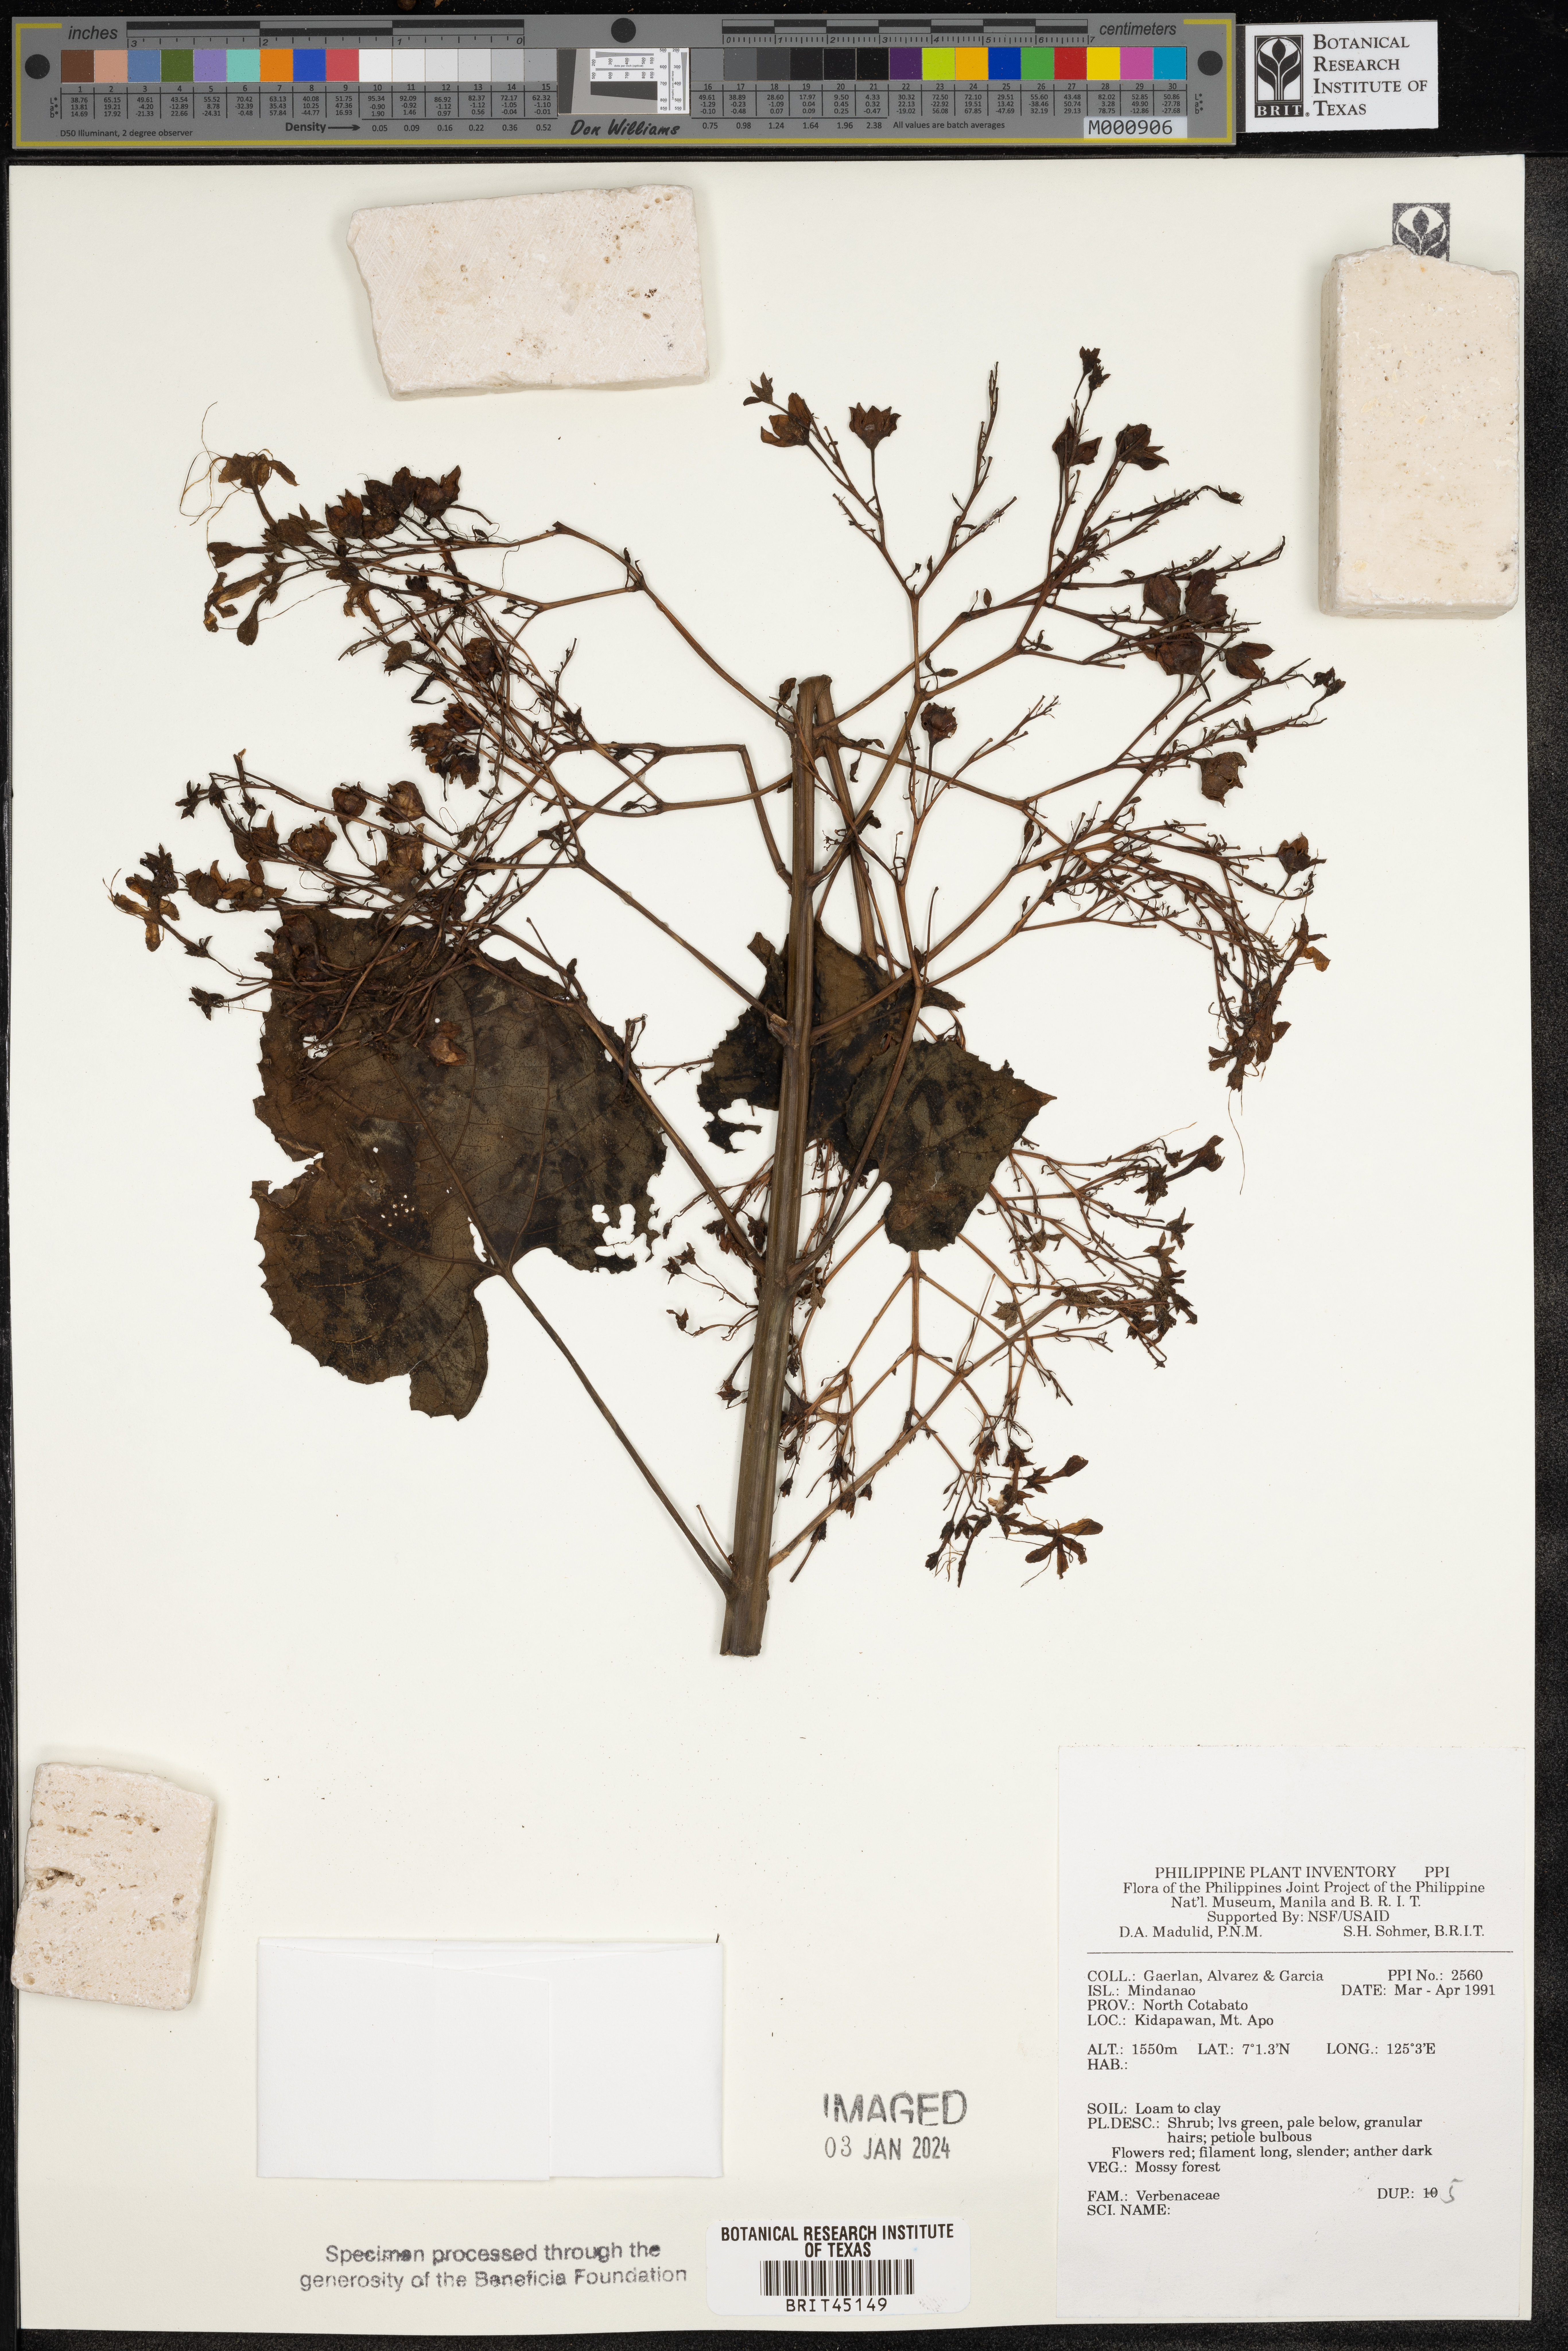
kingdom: Plantae
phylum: Tracheophyta
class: Magnoliopsida
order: Lamiales
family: Verbenaceae
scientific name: Verbenaceae
